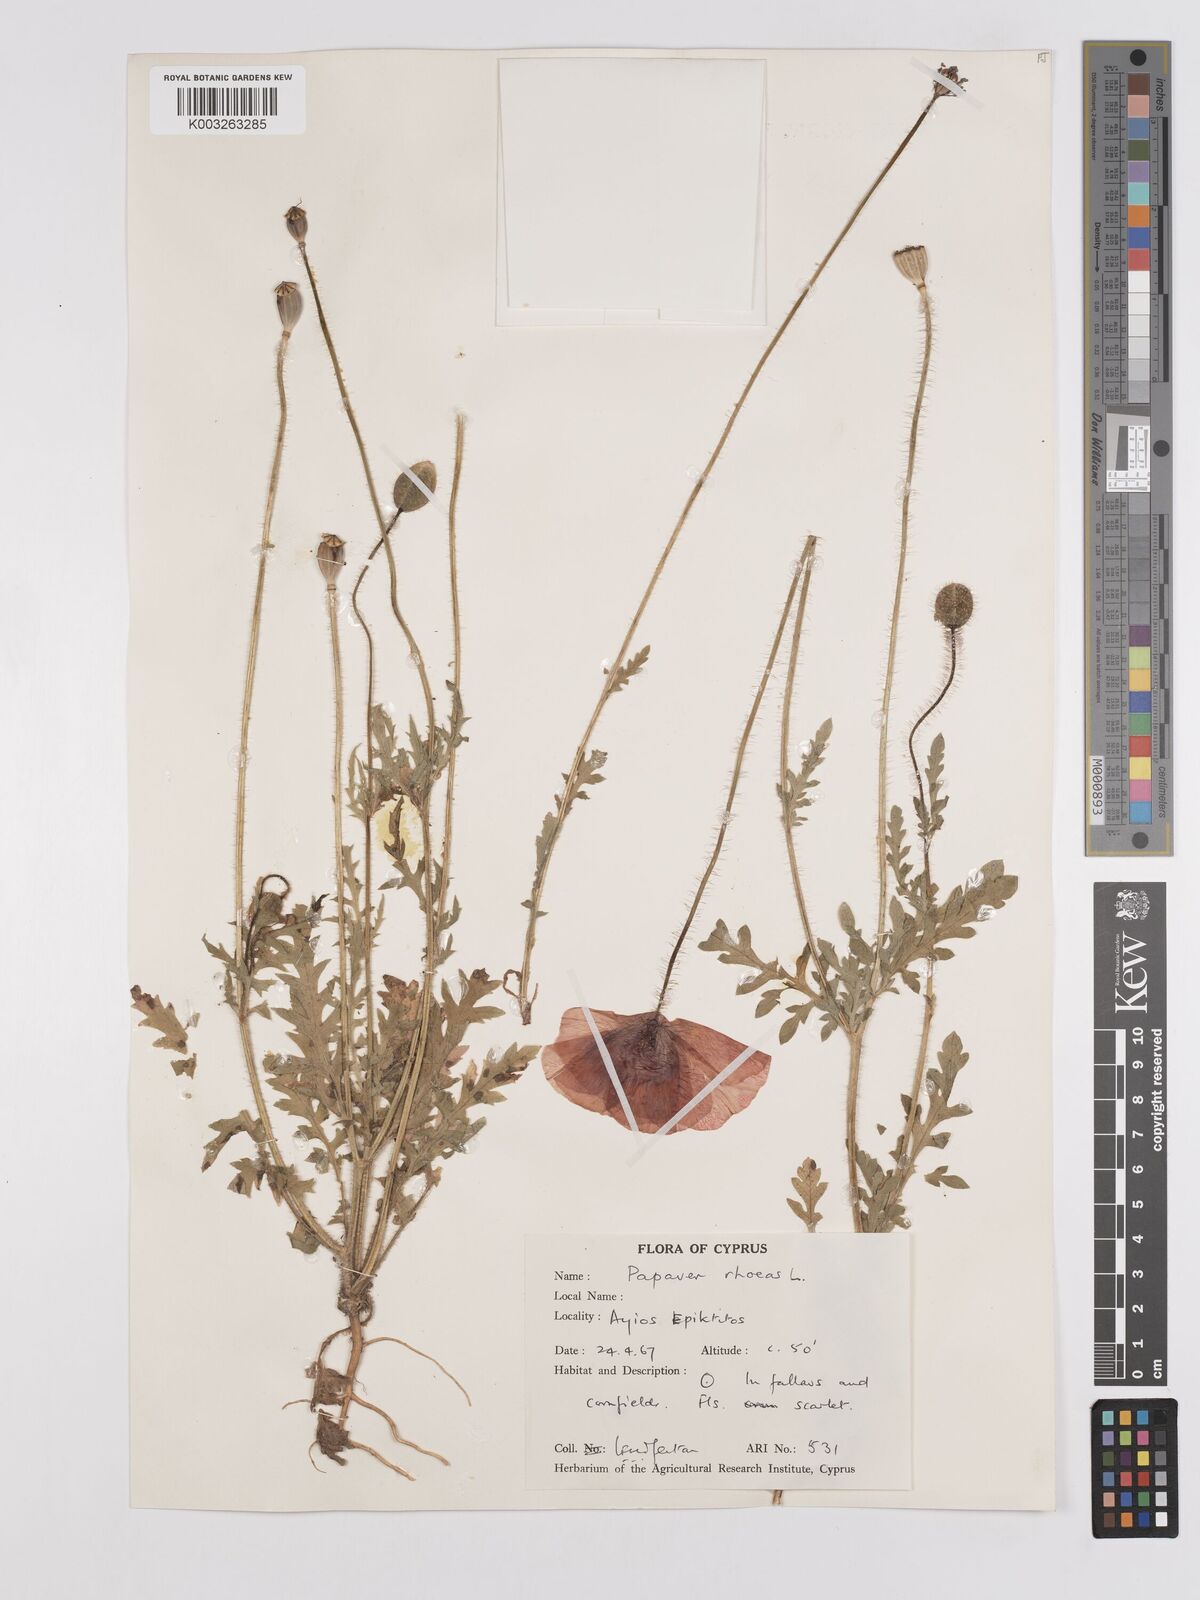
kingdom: Plantae
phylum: Tracheophyta
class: Magnoliopsida
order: Ranunculales
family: Papaveraceae
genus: Papaver
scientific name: Papaver rhoeas
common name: Corn poppy
